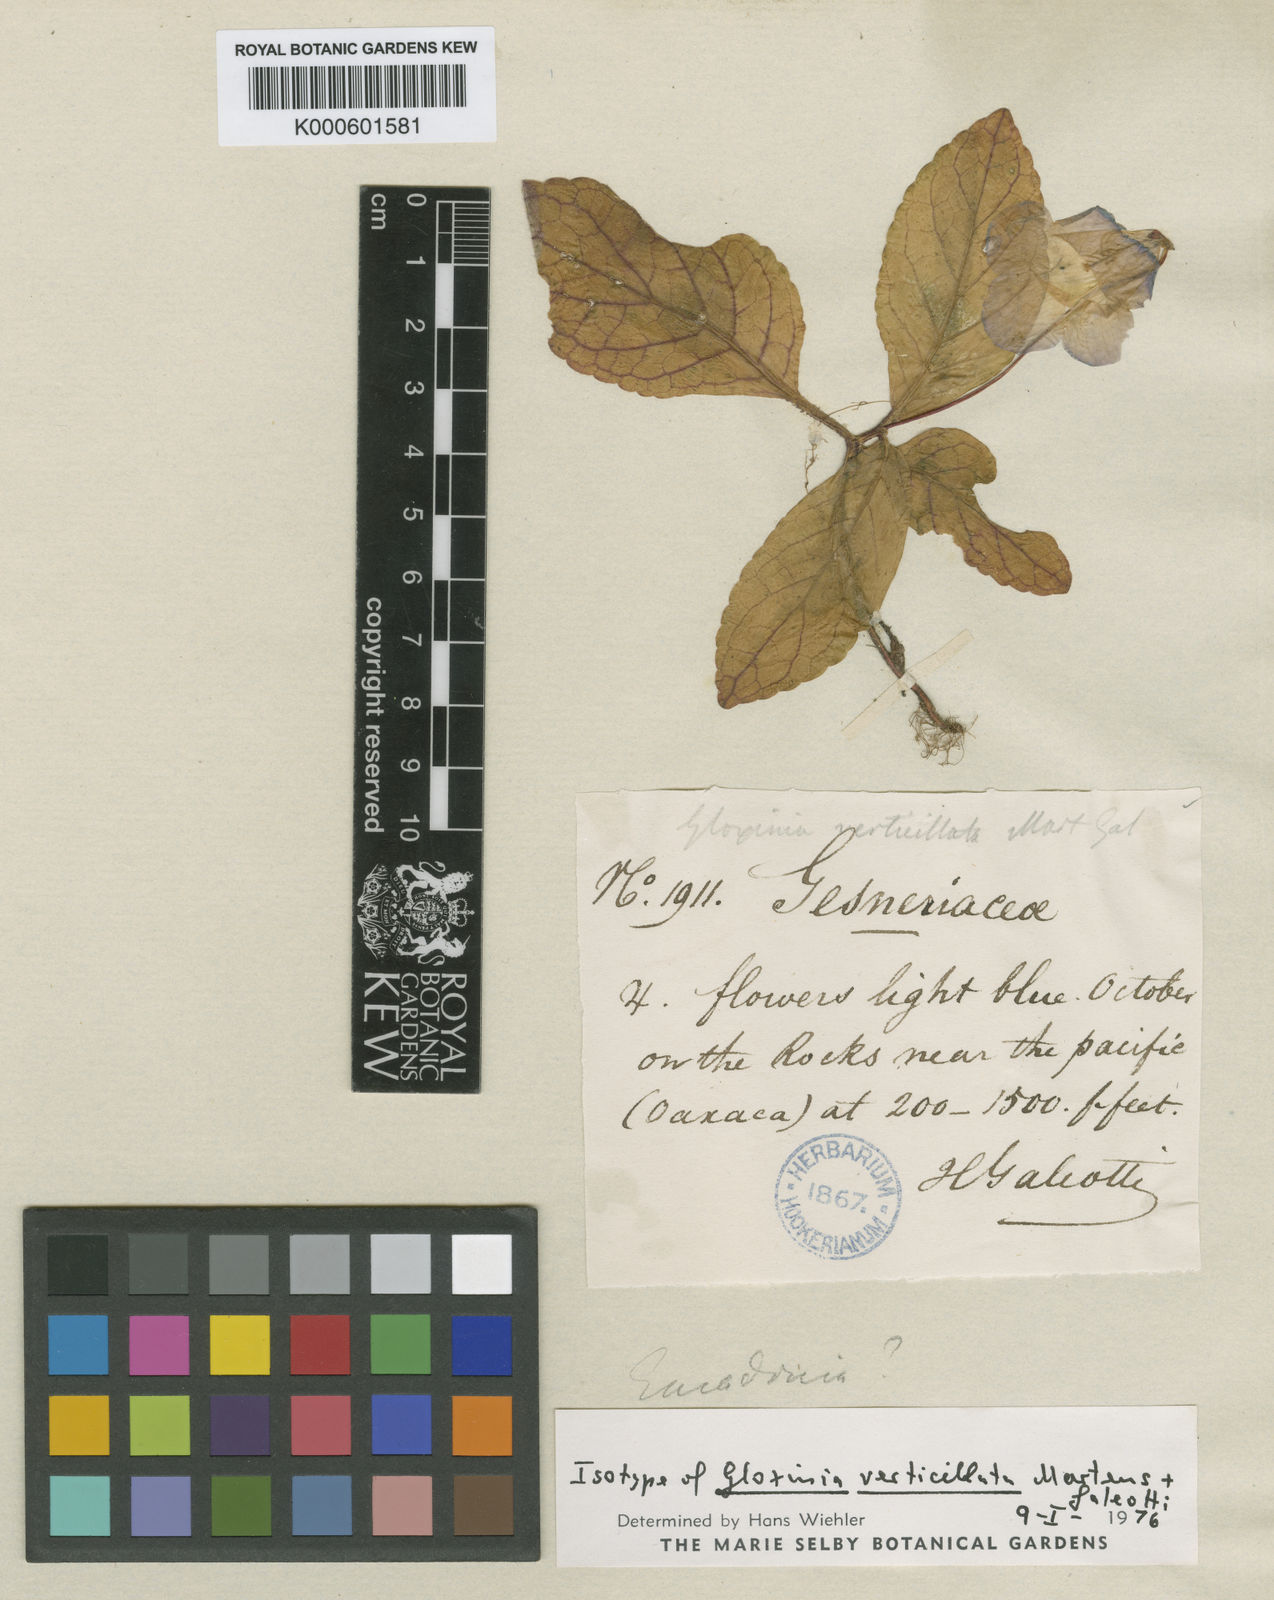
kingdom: Plantae
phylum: Tracheophyta
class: Magnoliopsida
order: Lamiales
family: Gesneriaceae
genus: Eucodonia
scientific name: Eucodonia verticillata
